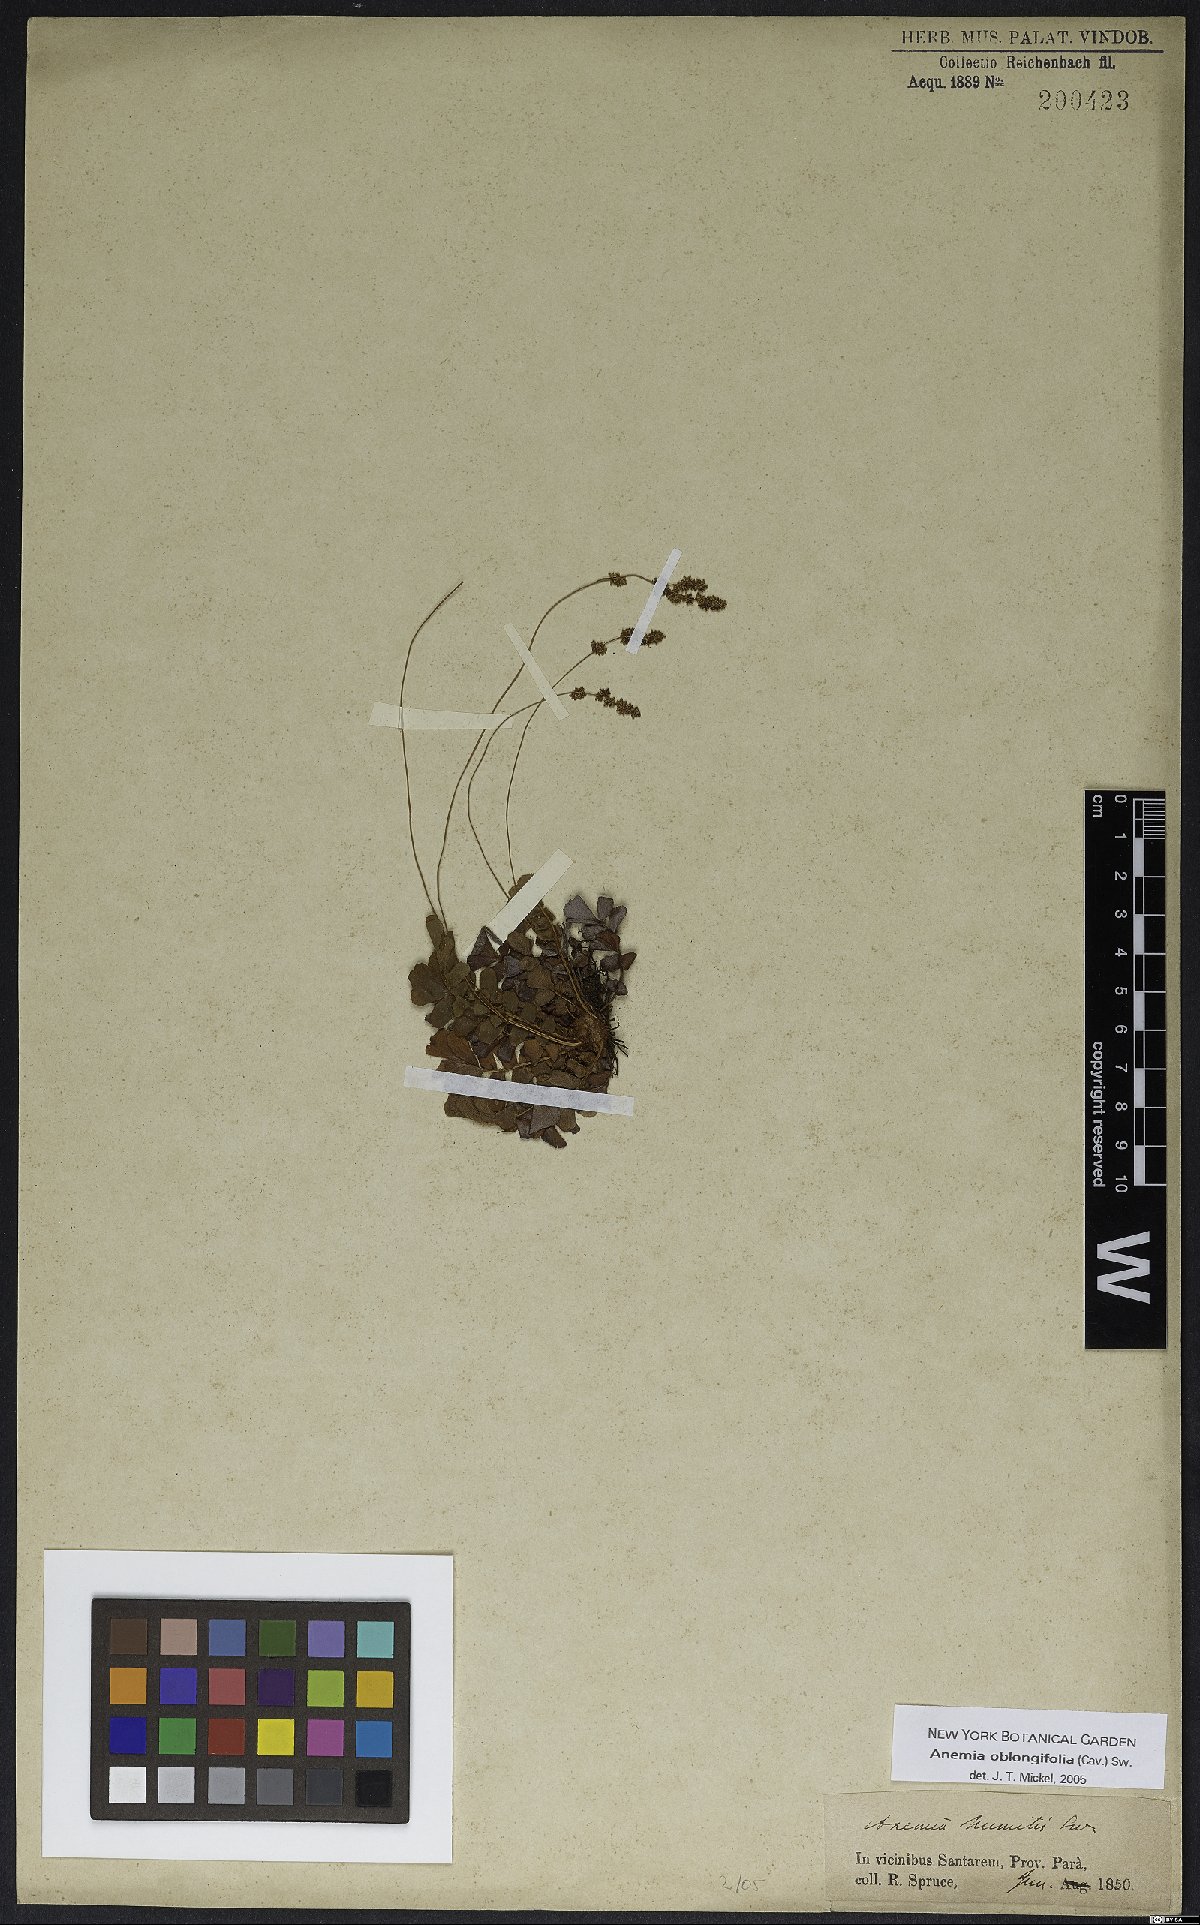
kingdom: Plantae
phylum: Tracheophyta
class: Polypodiopsida
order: Schizaeales
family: Anemiaceae
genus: Anemia
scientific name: Anemia oblongifolia
